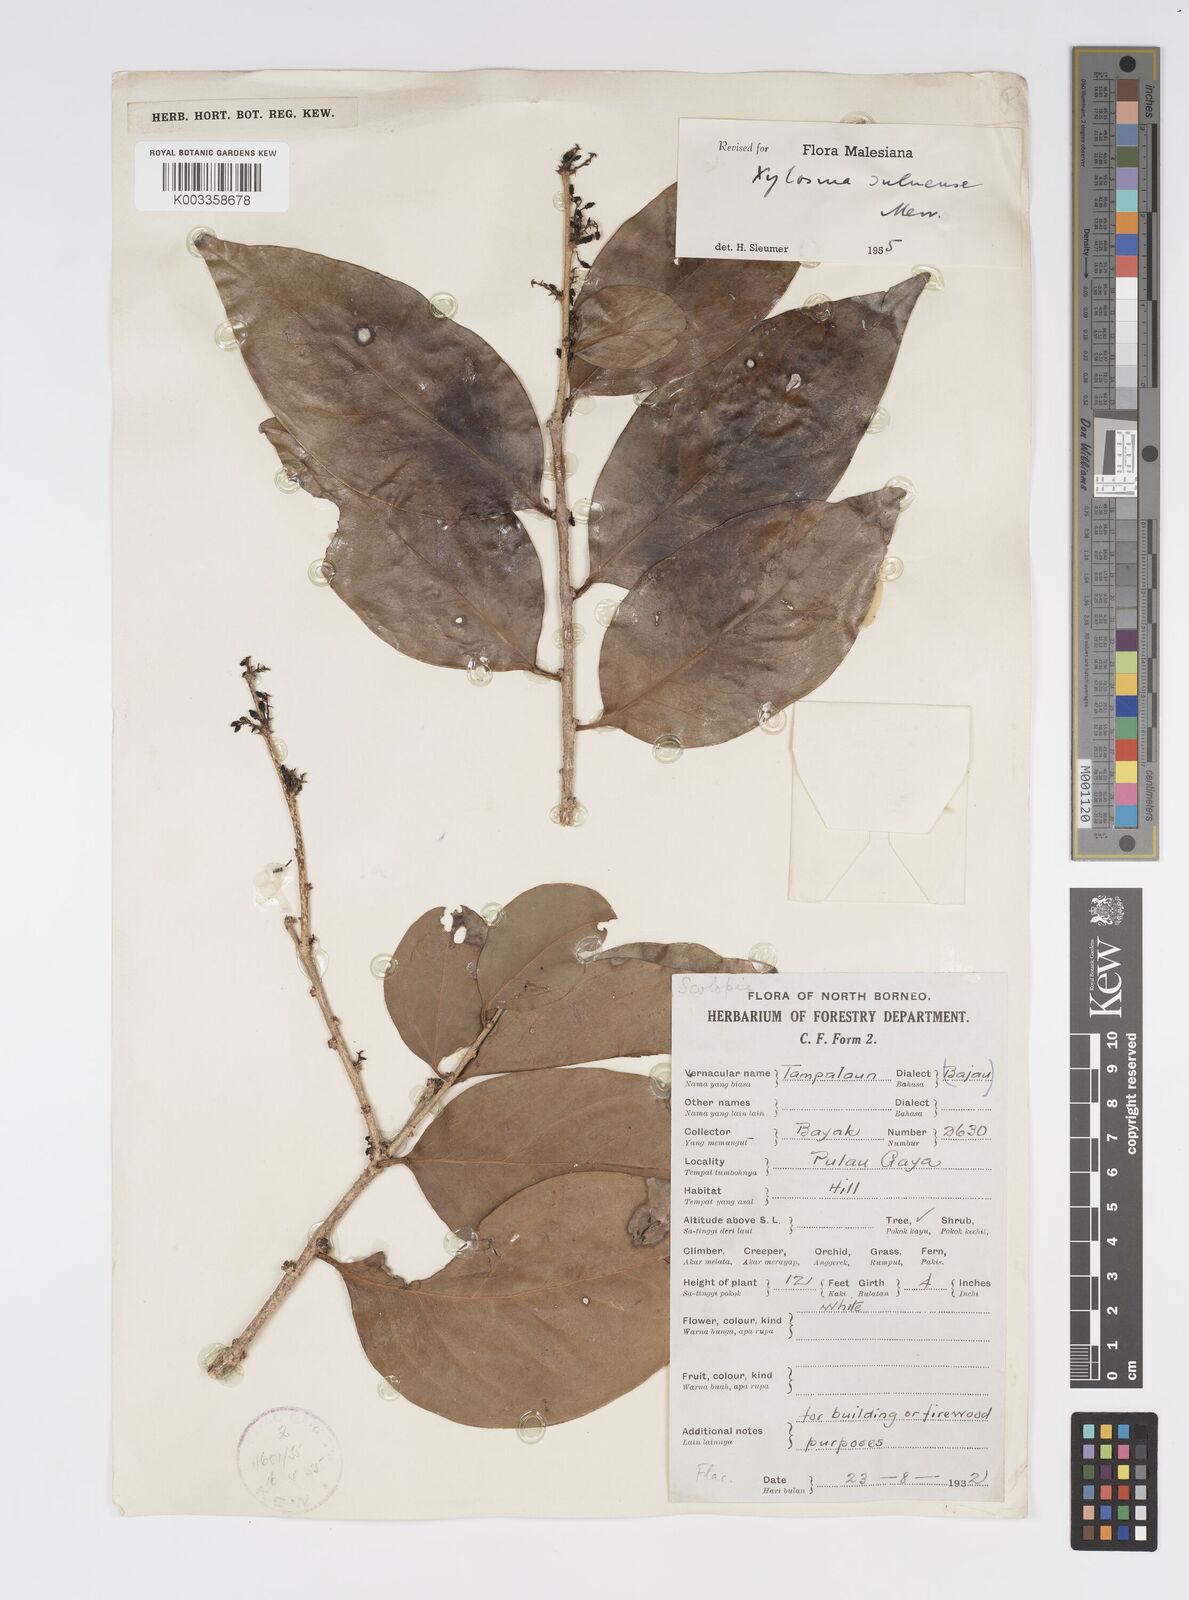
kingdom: Plantae
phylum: Tracheophyta
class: Magnoliopsida
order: Malpighiales
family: Salicaceae
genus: Xylosma
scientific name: Xylosma suluensis
